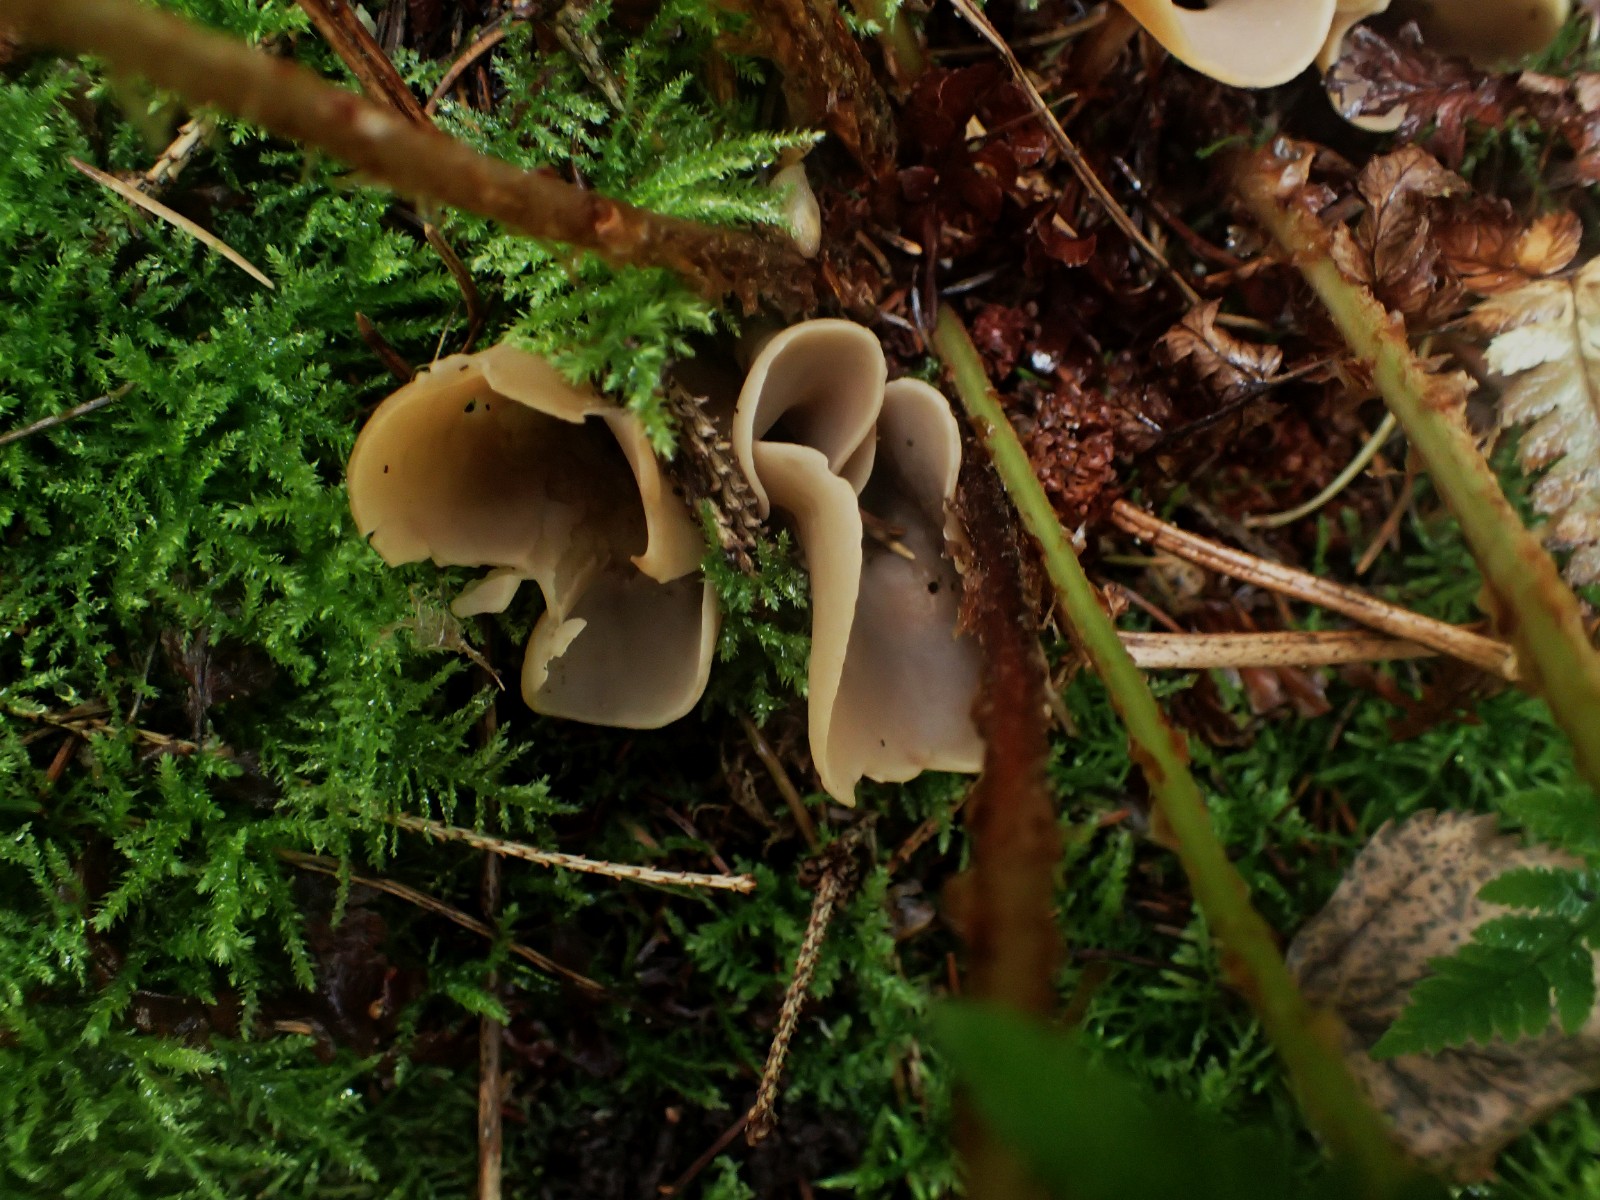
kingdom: Fungi
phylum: Ascomycota
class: Pezizomycetes
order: Pezizales
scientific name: Pezizales
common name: bægersvampordenen
